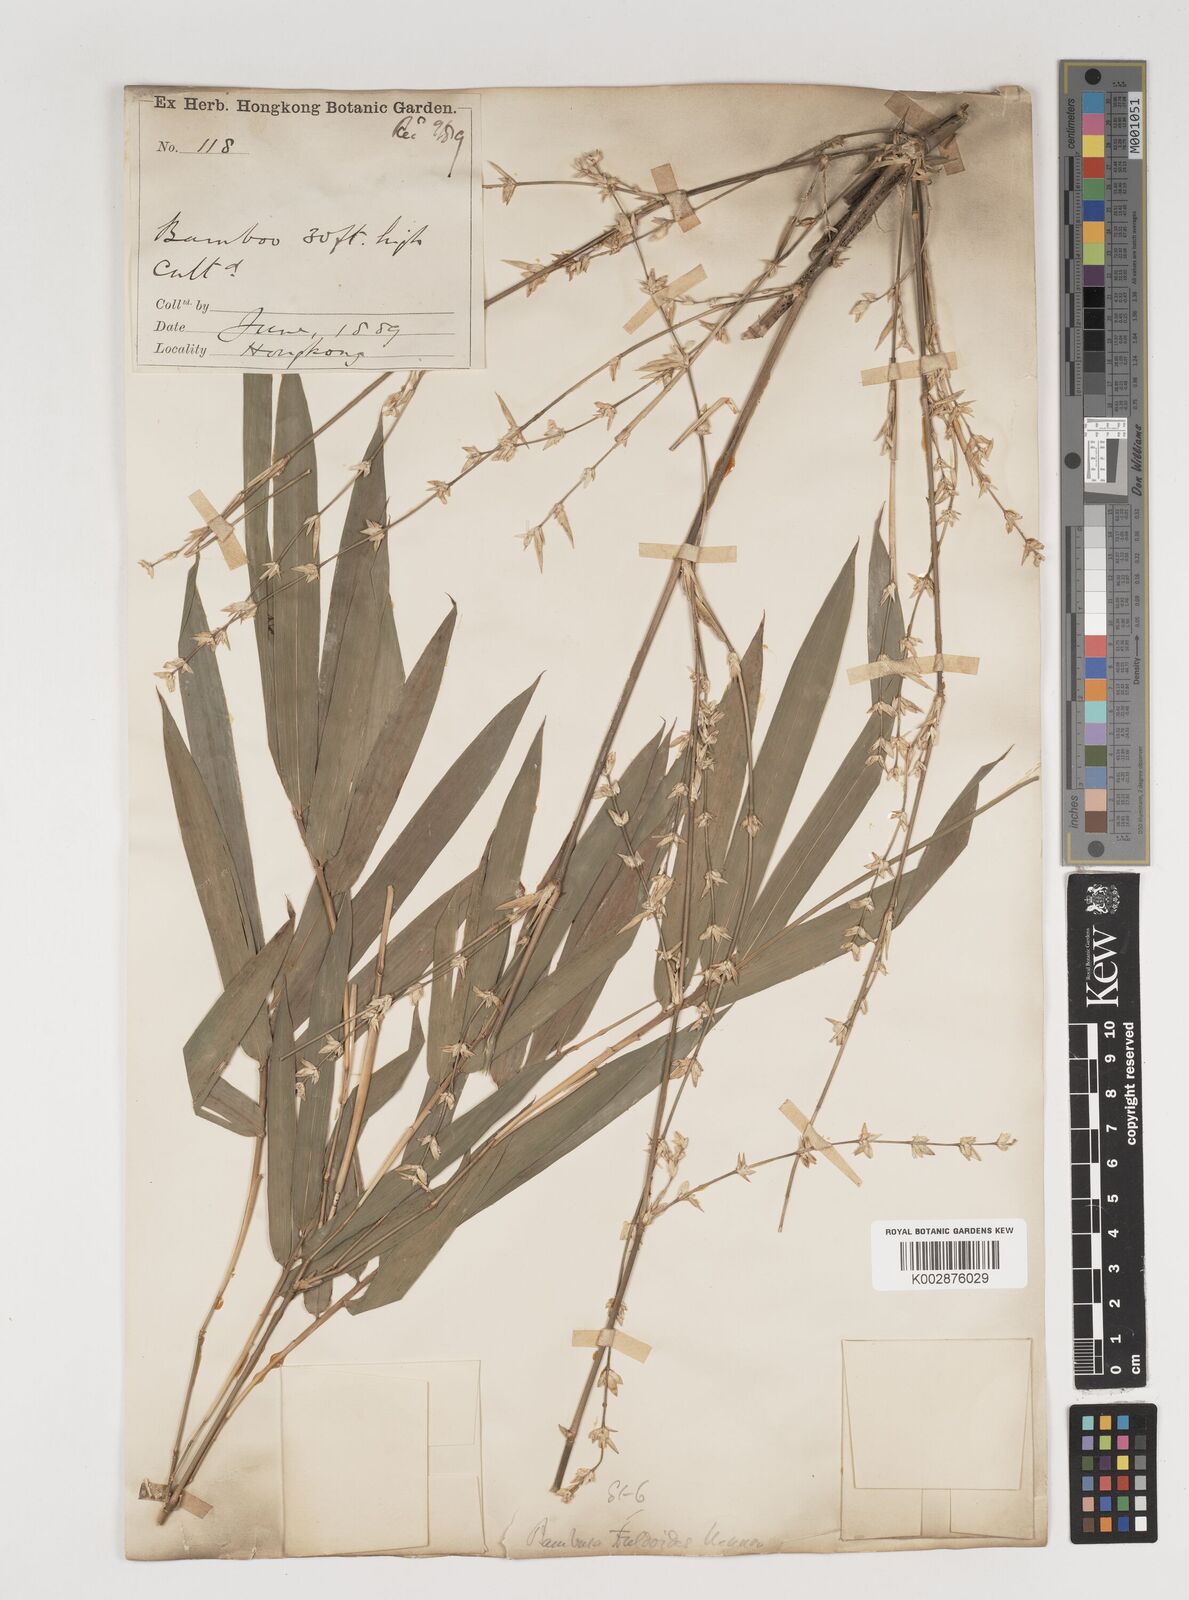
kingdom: Plantae
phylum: Tracheophyta
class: Liliopsida
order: Poales
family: Poaceae
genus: Bambusa
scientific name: Bambusa tuldoides
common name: Verdant bamboo
